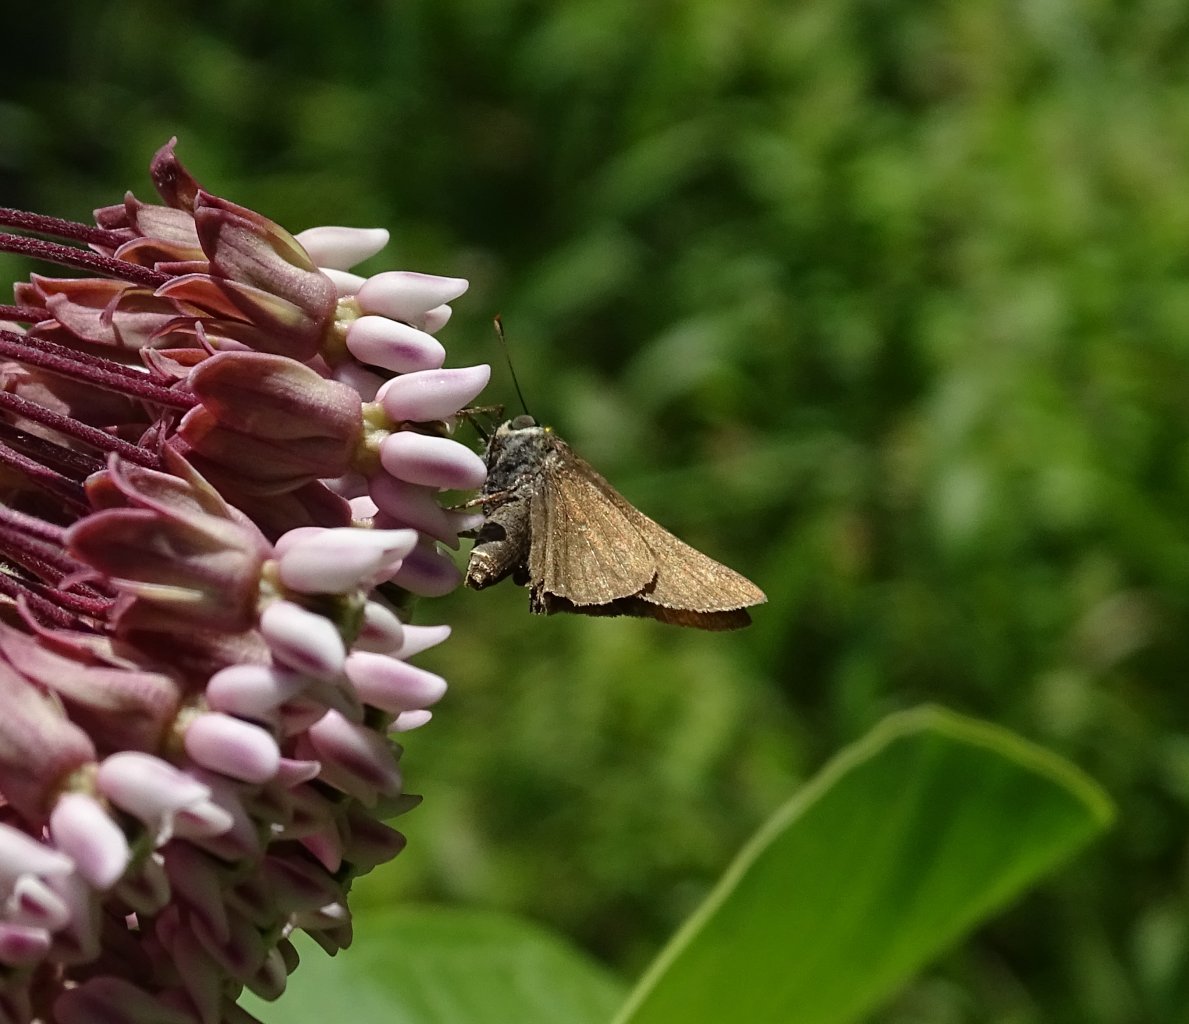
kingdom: Animalia
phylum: Arthropoda
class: Insecta
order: Lepidoptera
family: Hesperiidae
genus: Euphyes
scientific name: Euphyes vestris
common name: Dun Skipper
